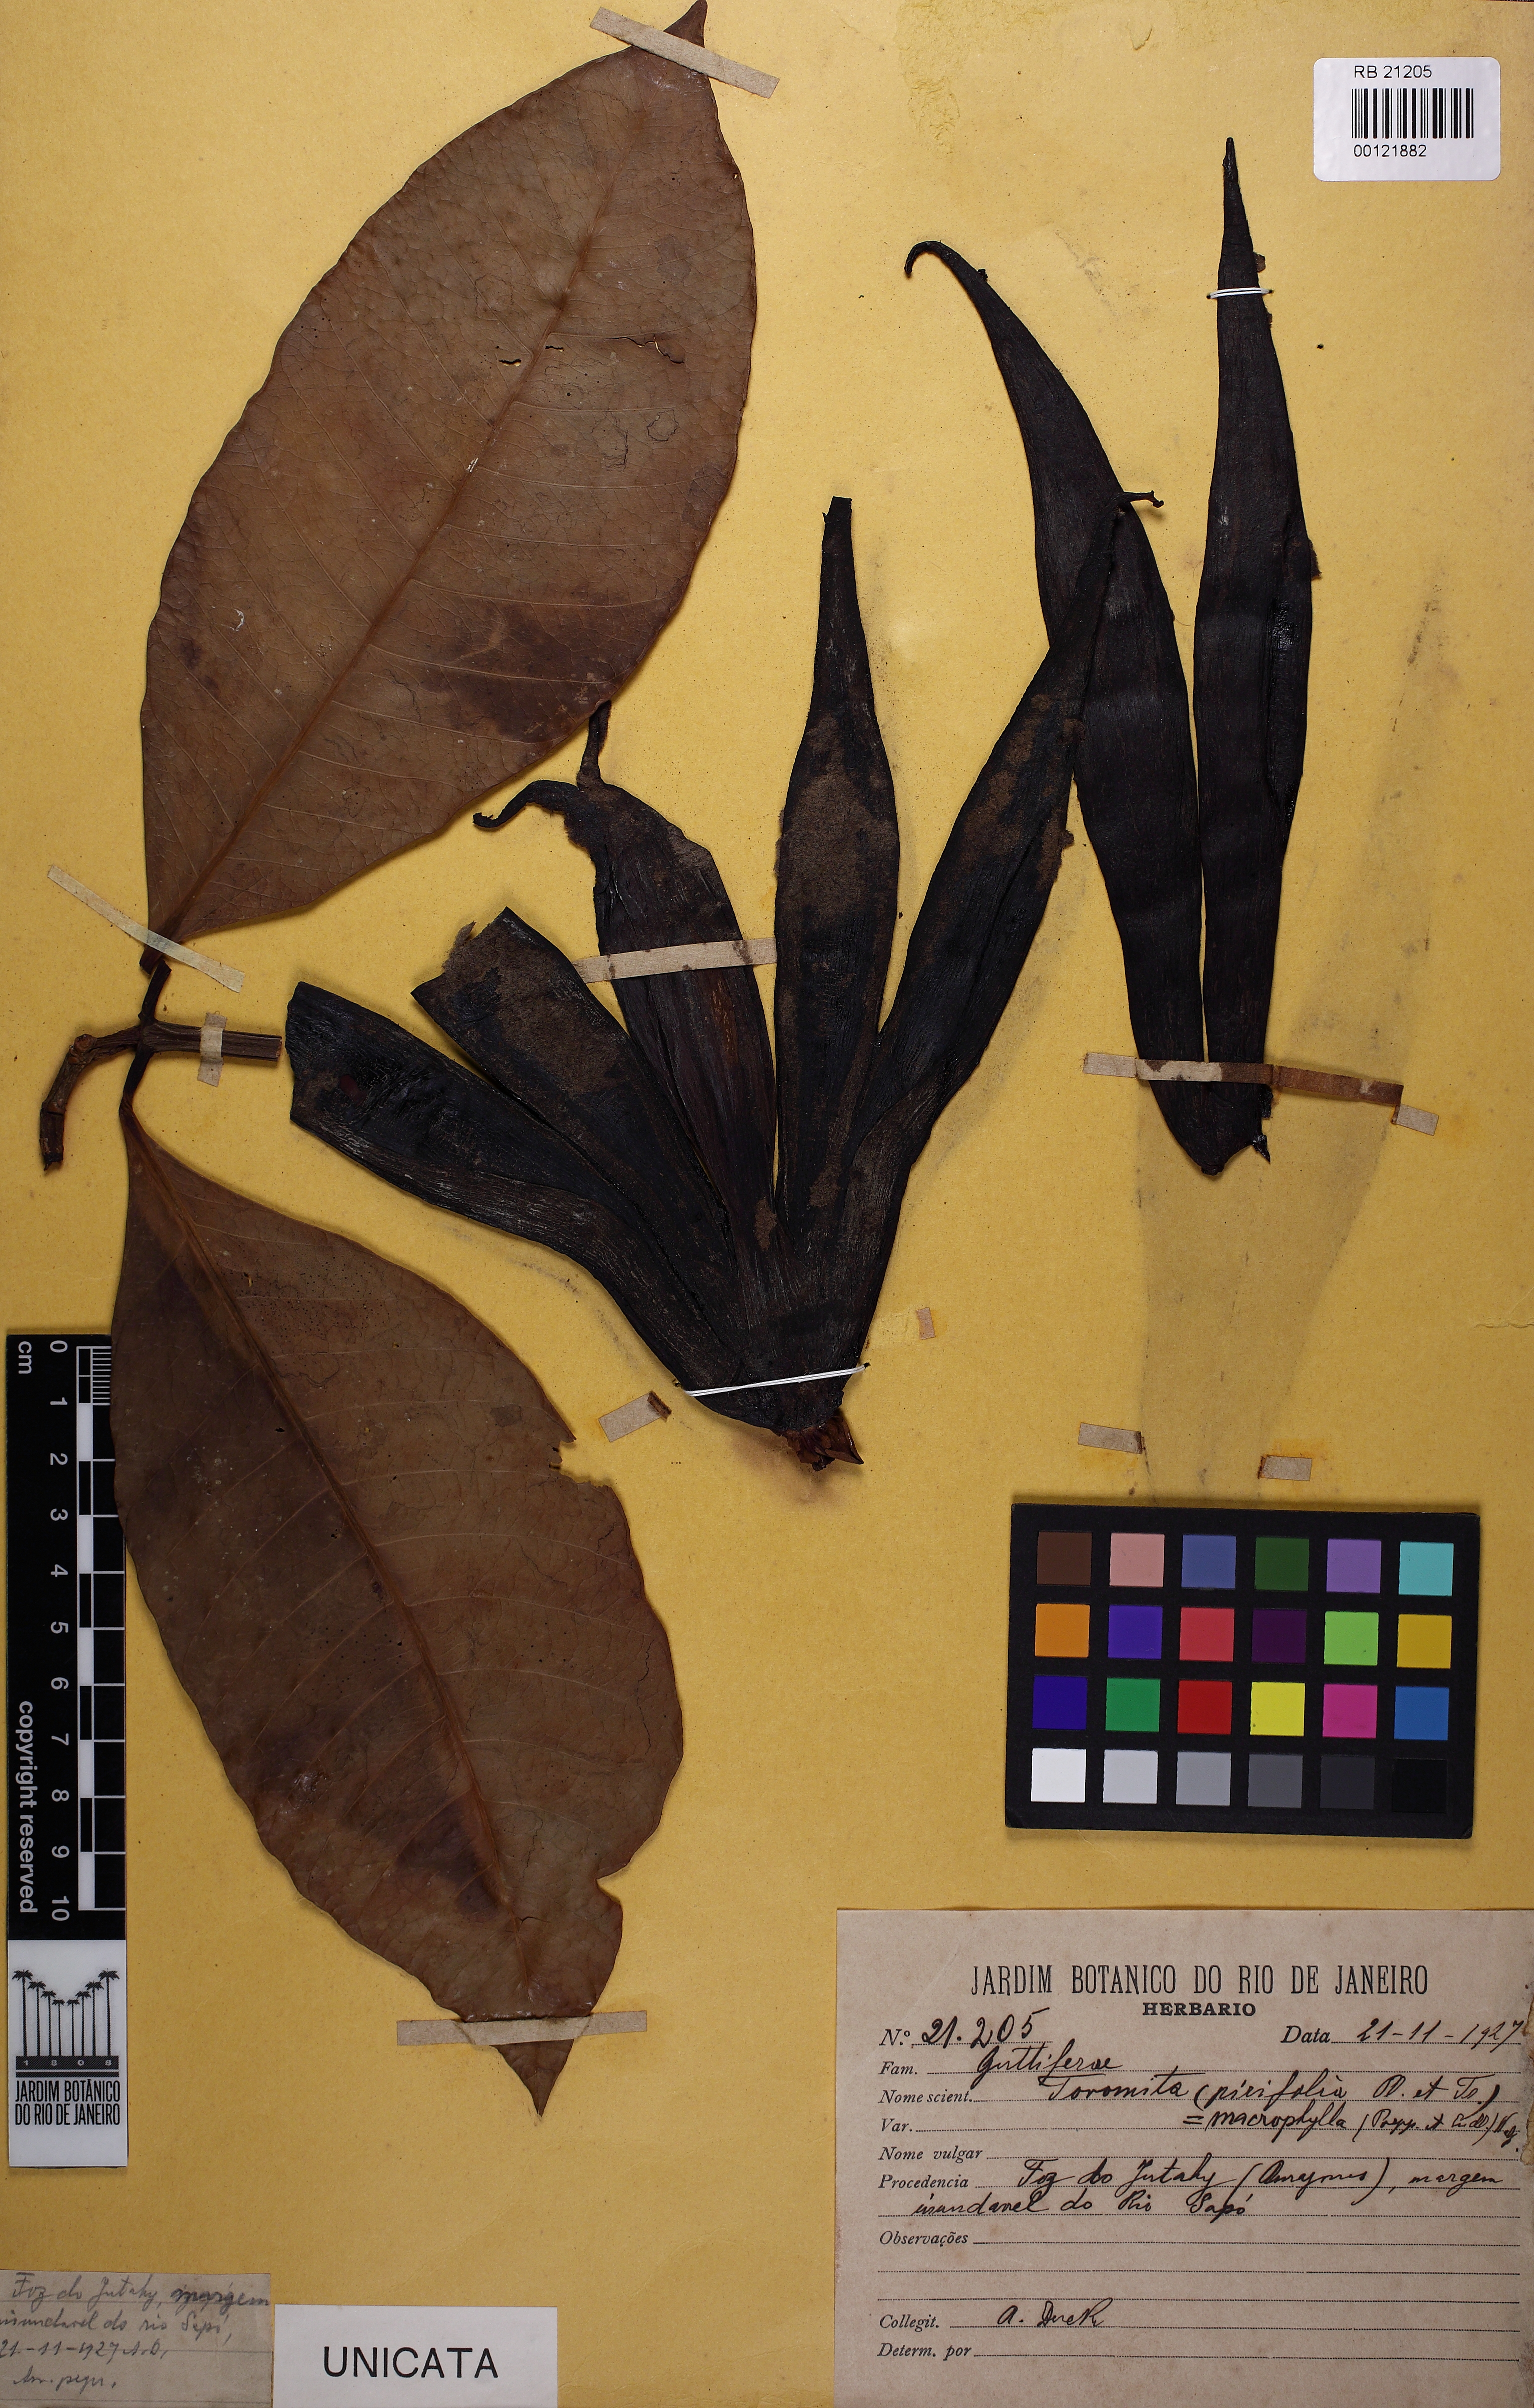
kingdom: Plantae
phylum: Tracheophyta
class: Magnoliopsida
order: Malpighiales
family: Clusiaceae
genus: Tovomita
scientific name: Tovomita macrophylla
